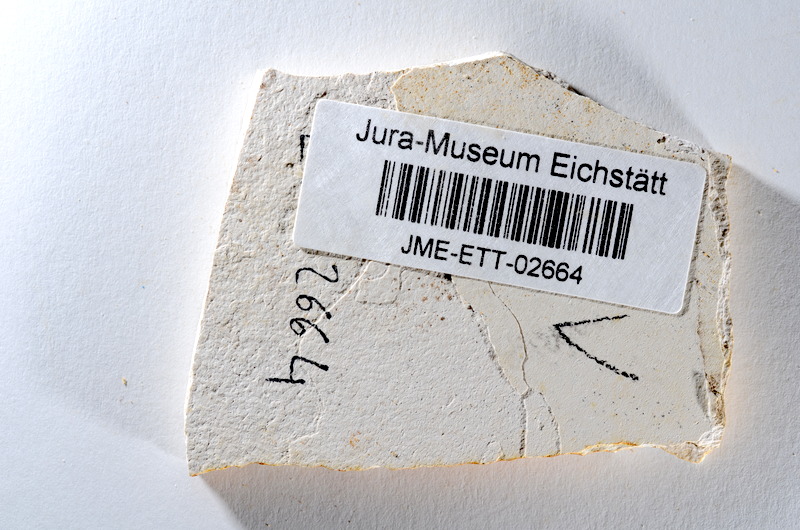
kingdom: Animalia
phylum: Chordata
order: Salmoniformes
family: Orthogonikleithridae
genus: Orthogonikleithrus
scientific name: Orthogonikleithrus hoelli
